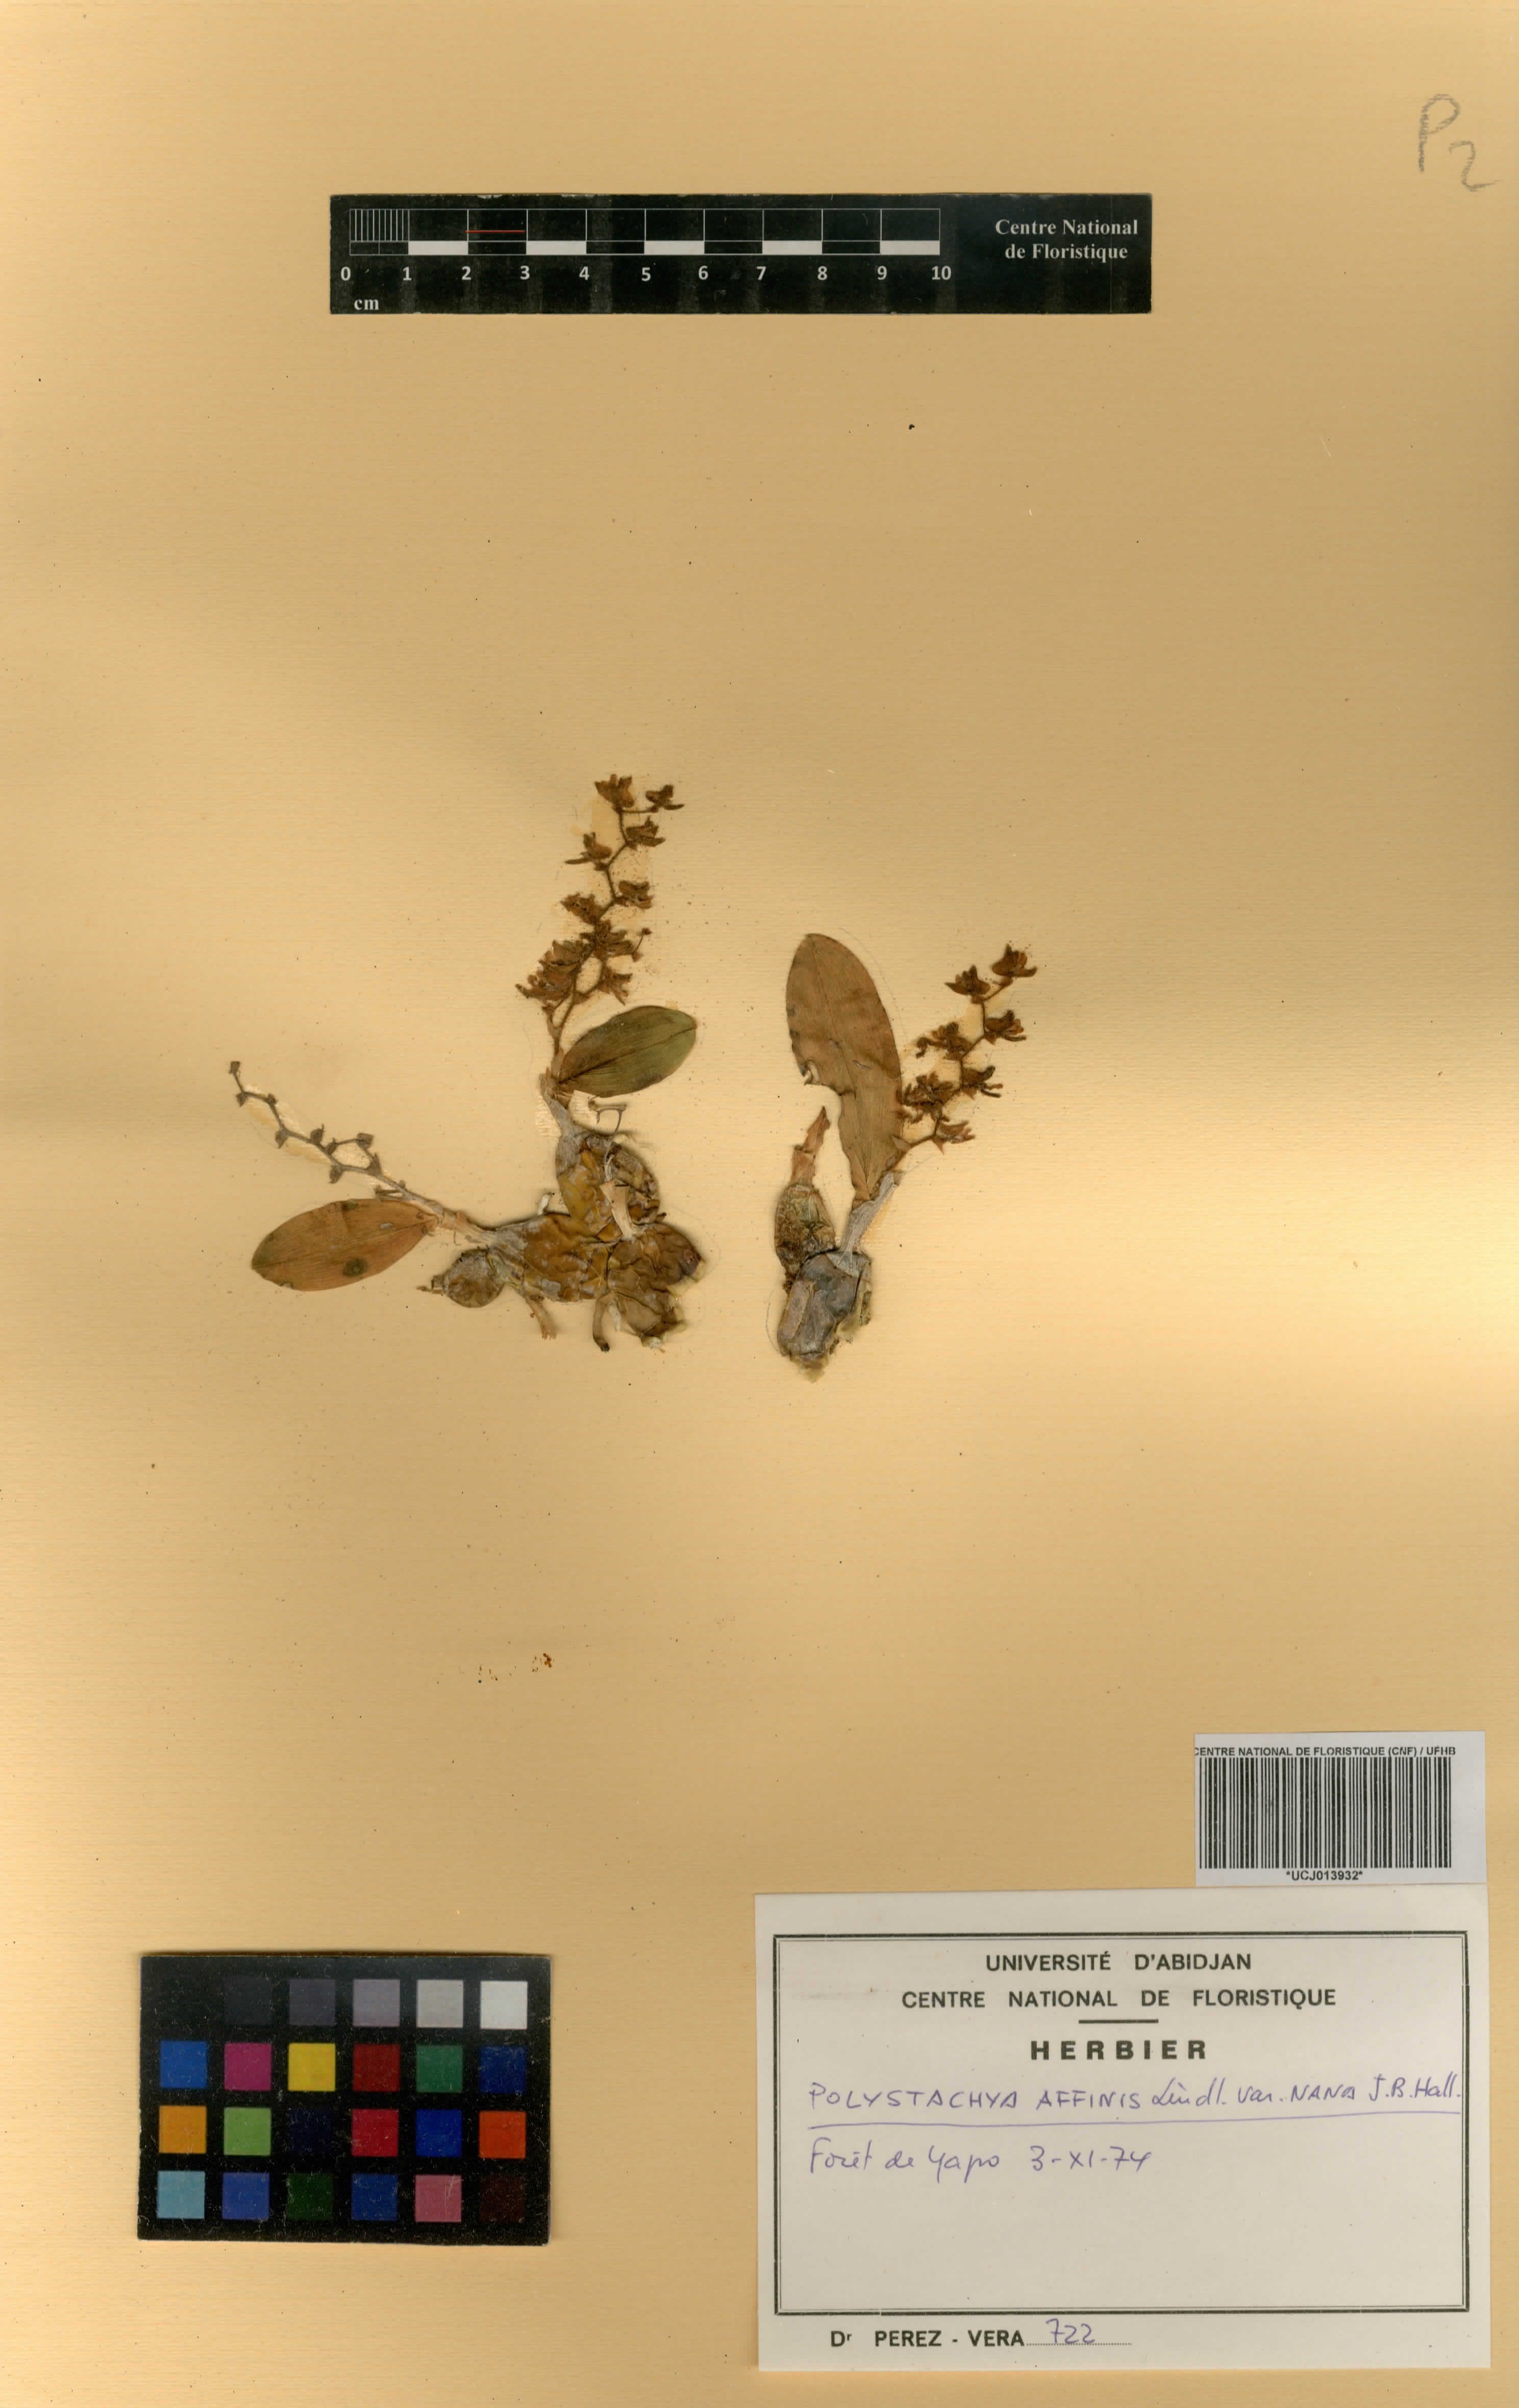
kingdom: Plantae
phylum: Tracheophyta
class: Liliopsida
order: Asparagales
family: Orchidaceae
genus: Polystachya
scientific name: Polystachya bancoensis
